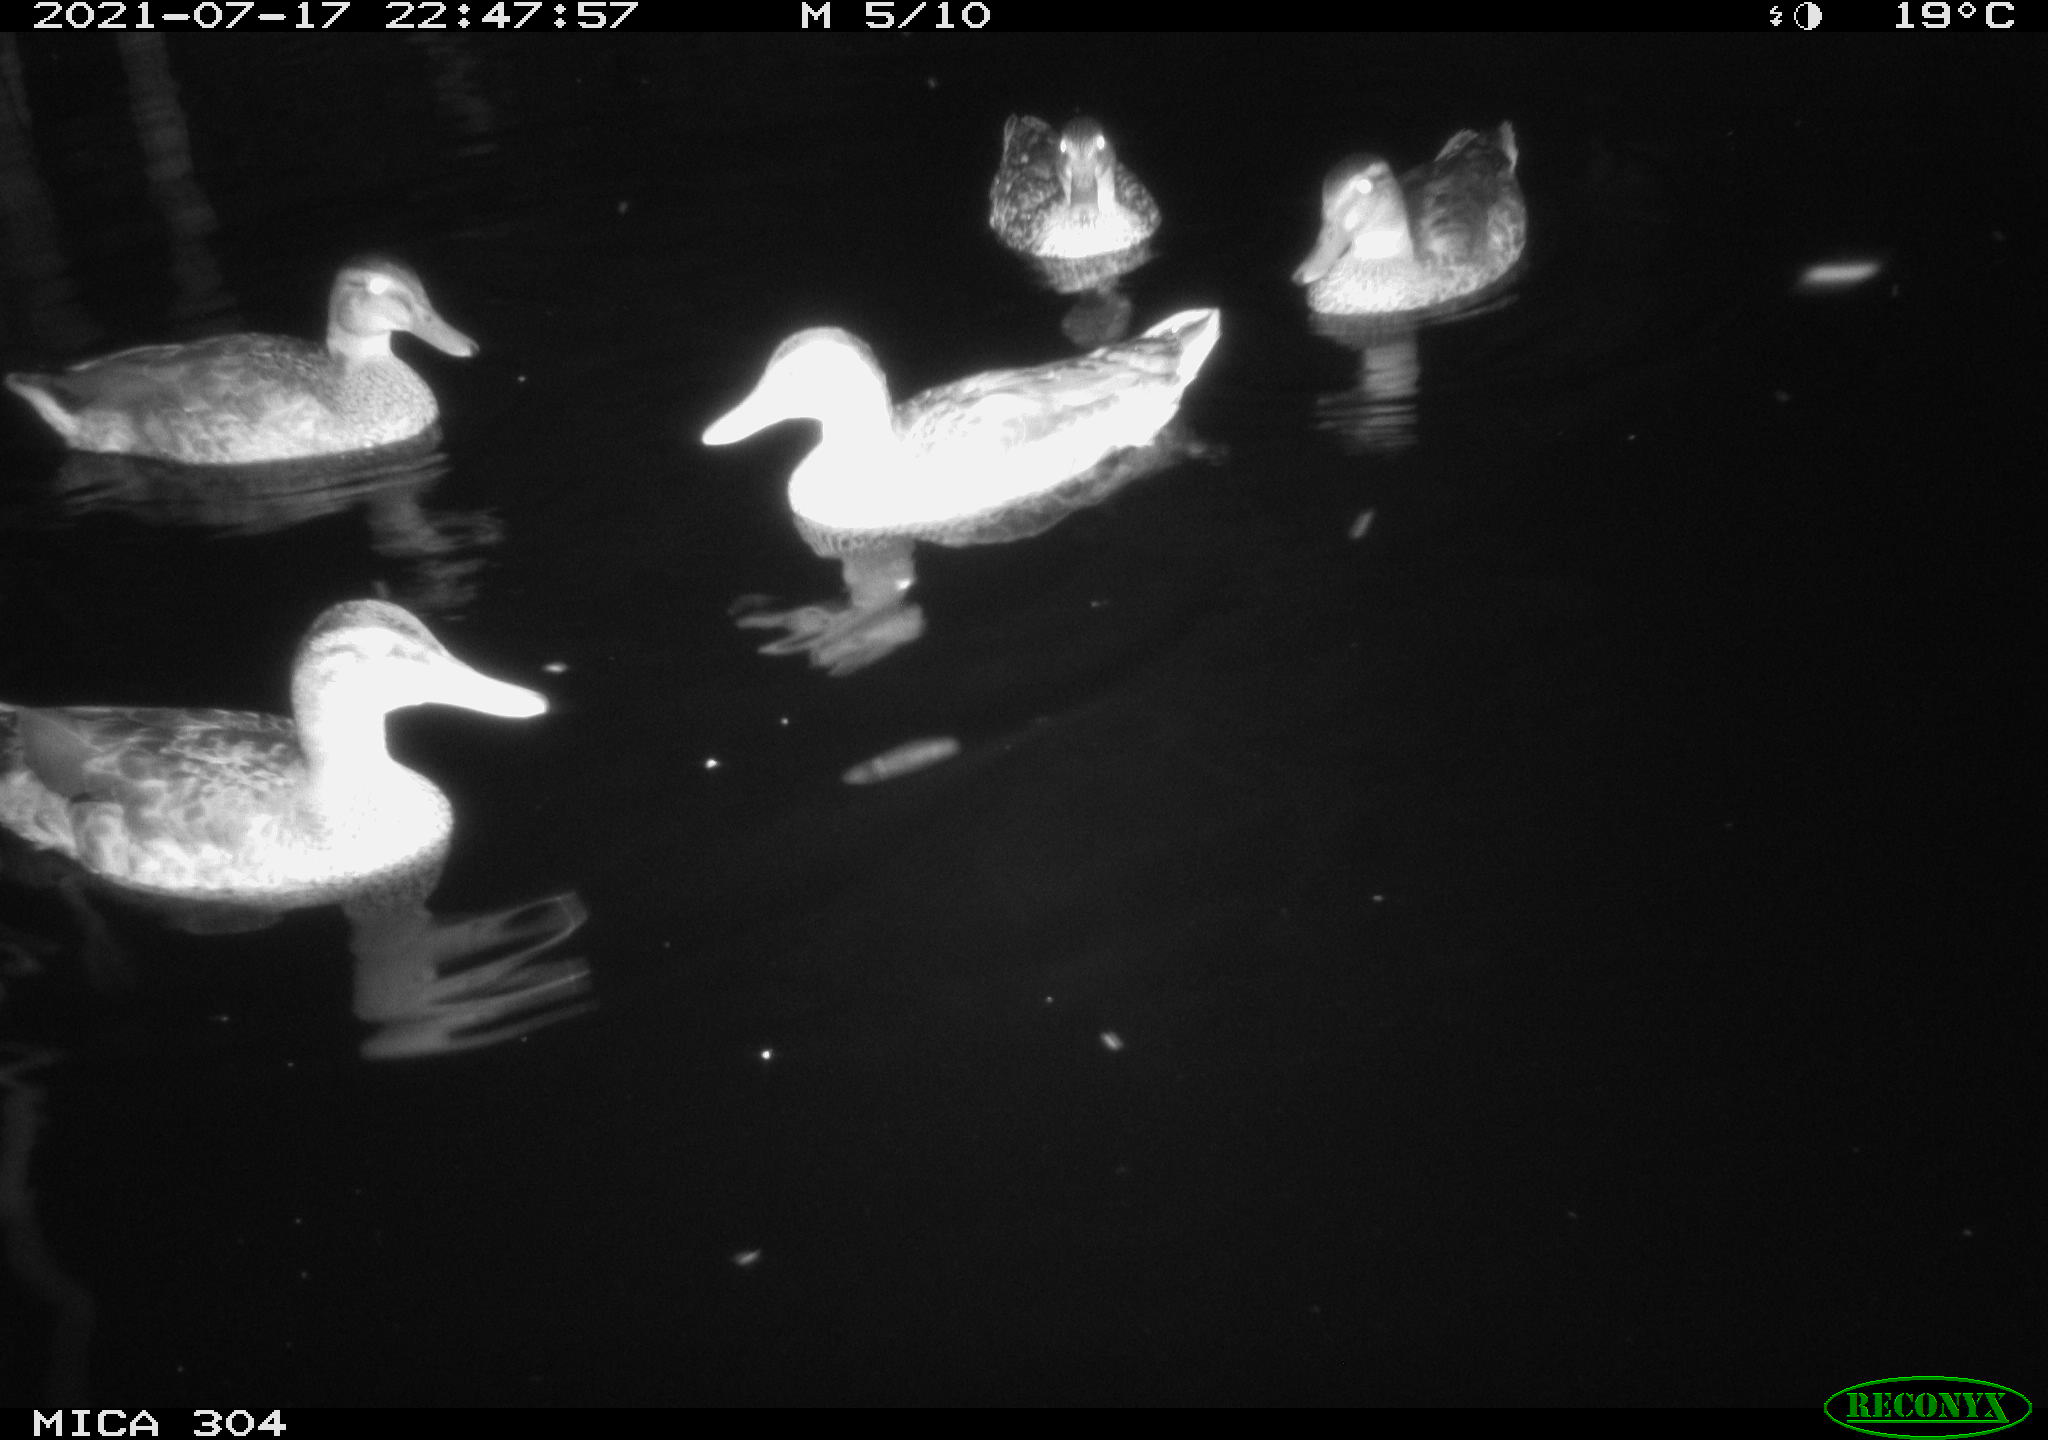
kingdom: Animalia
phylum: Chordata
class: Aves
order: Anseriformes
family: Anatidae
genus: Anas
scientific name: Anas platyrhynchos
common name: Mallard
